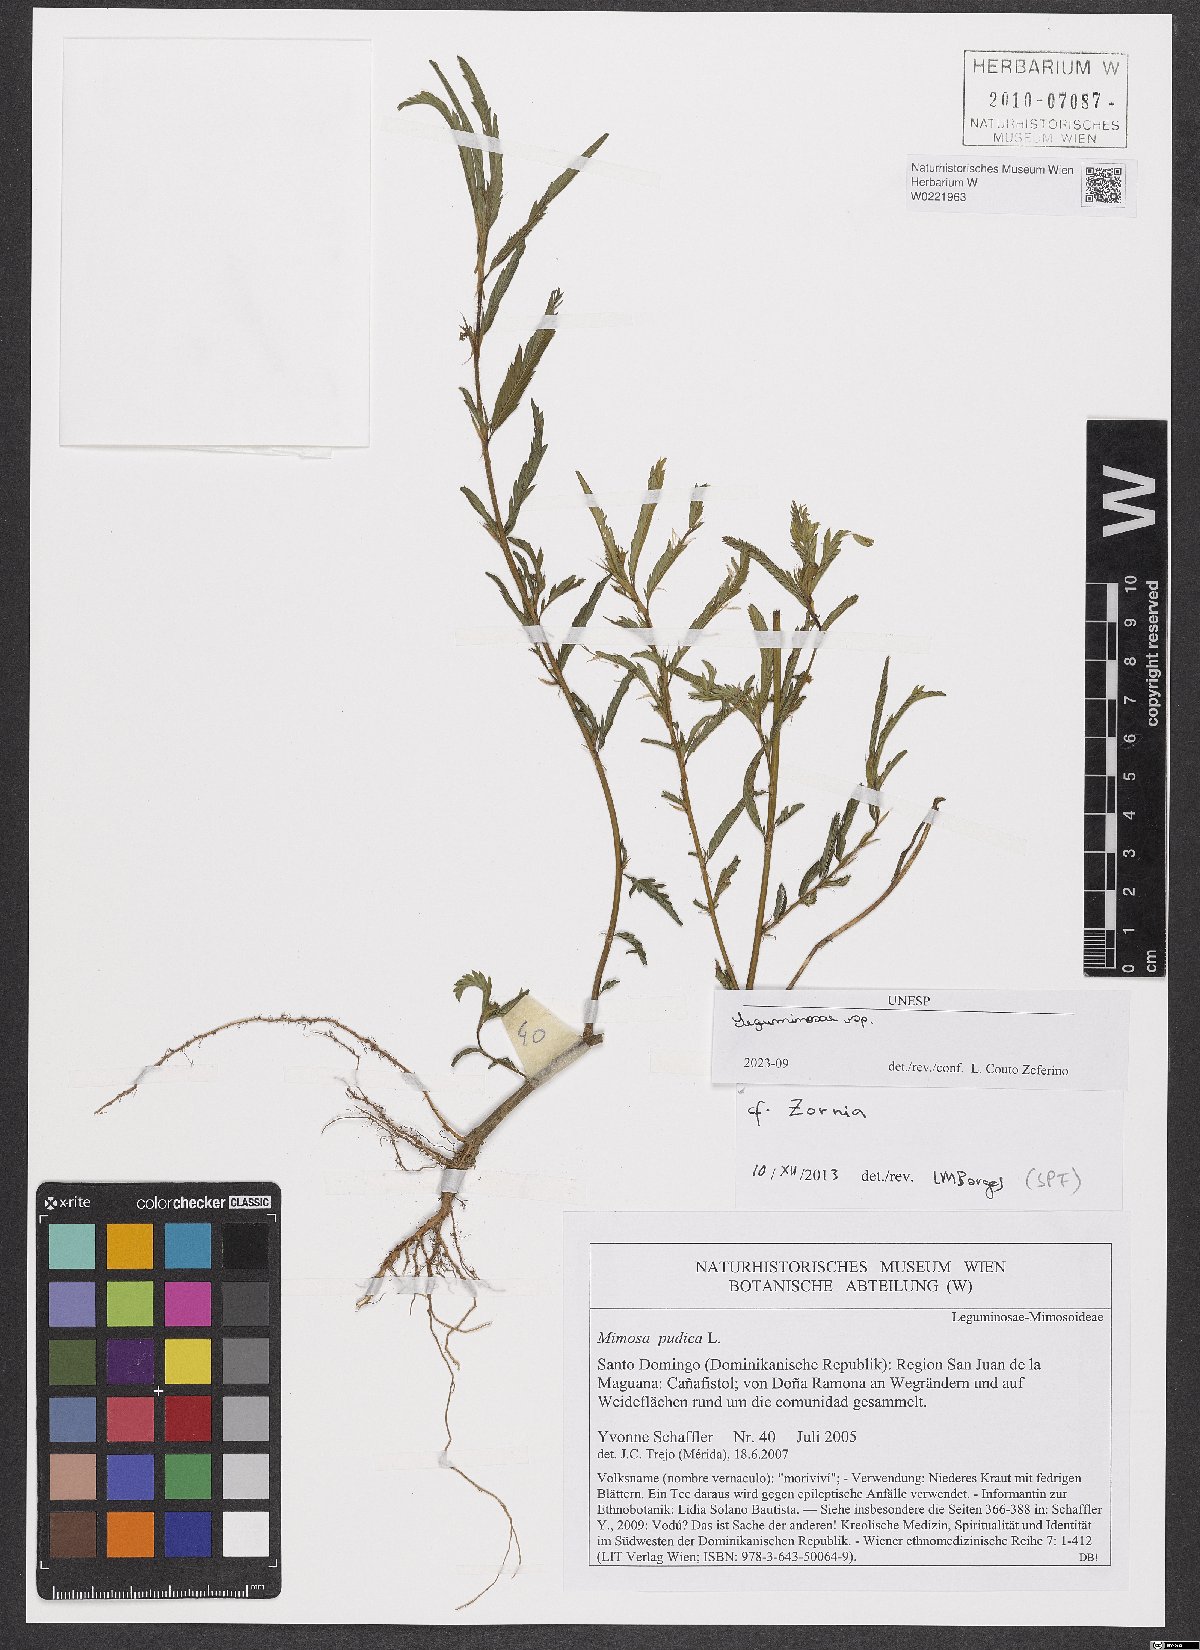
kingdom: Plantae
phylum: Tracheophyta
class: Magnoliopsida
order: Fabales
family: Fabaceae
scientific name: Fabaceae
